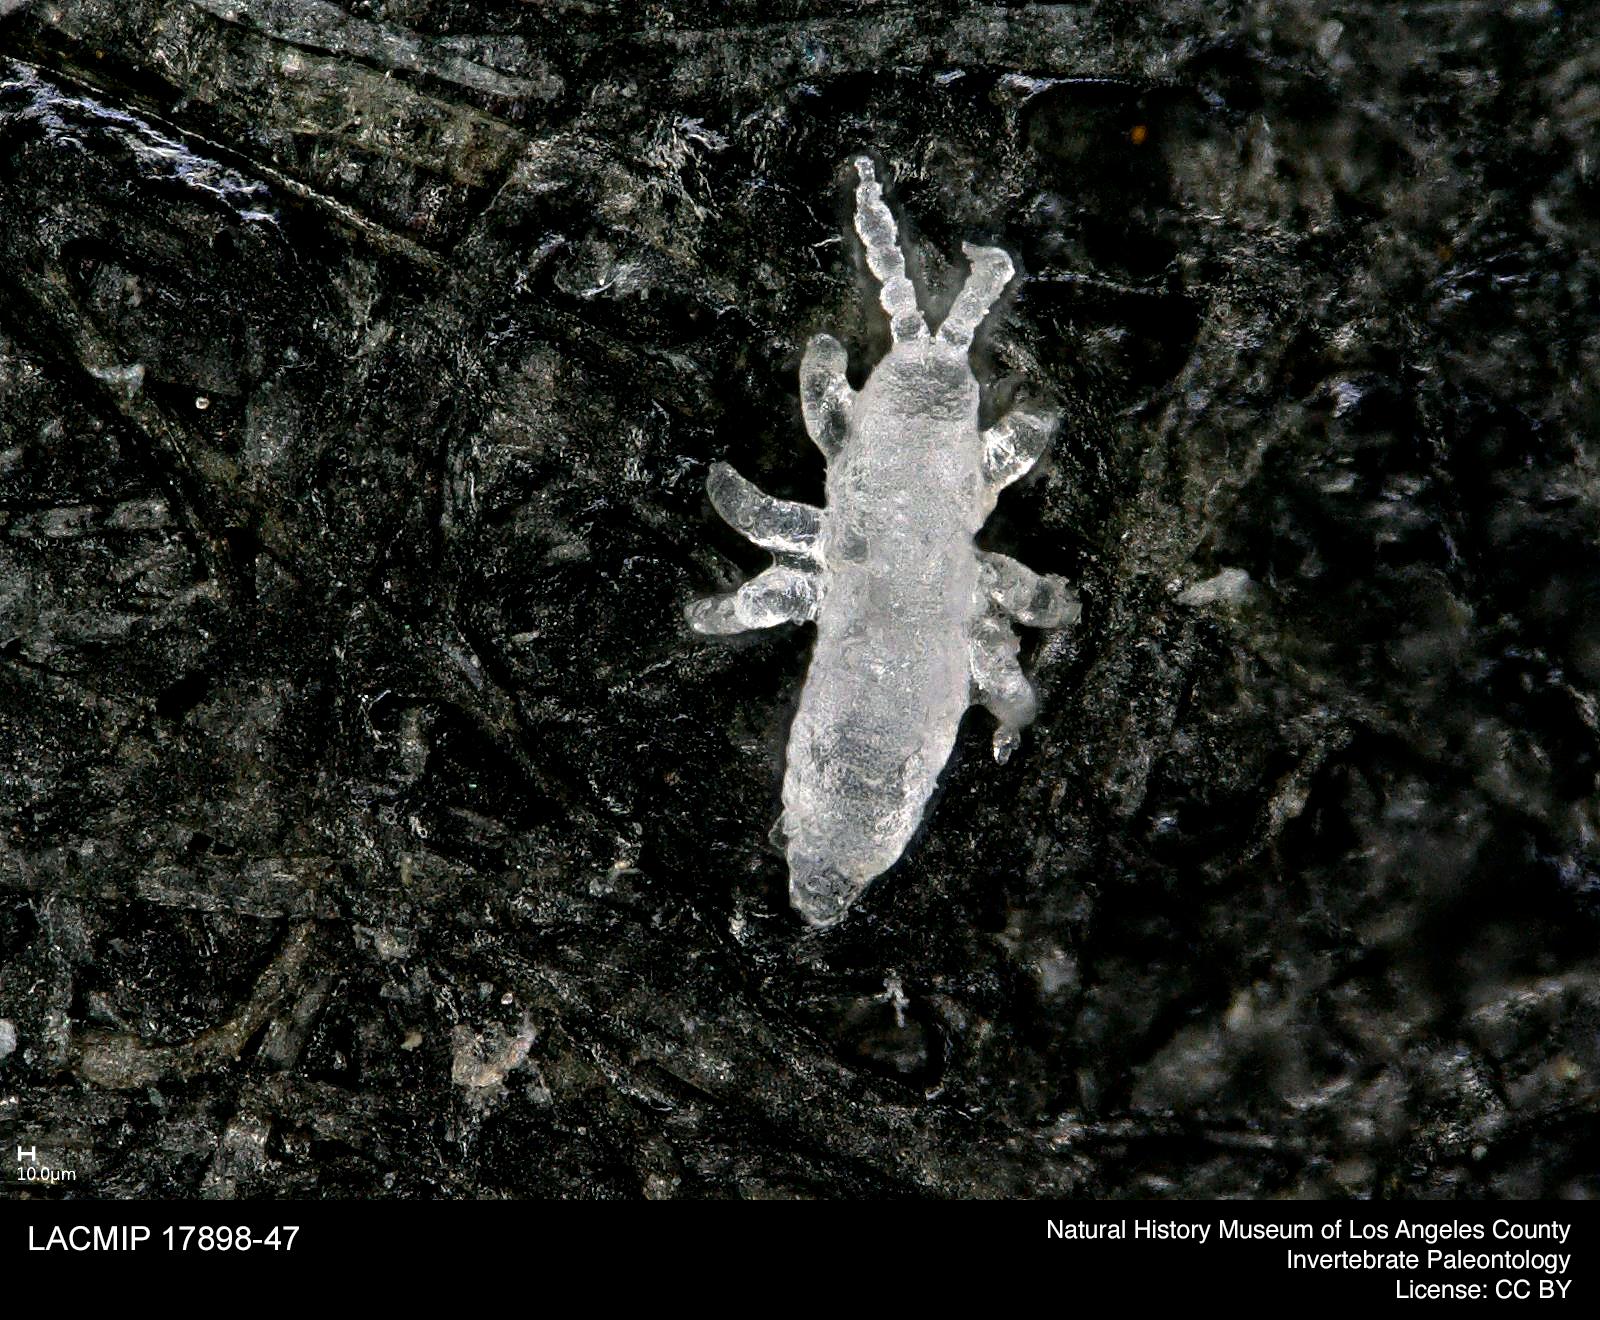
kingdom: Animalia
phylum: Arthropoda
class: Collembola
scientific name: Collembola
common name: Collembola
